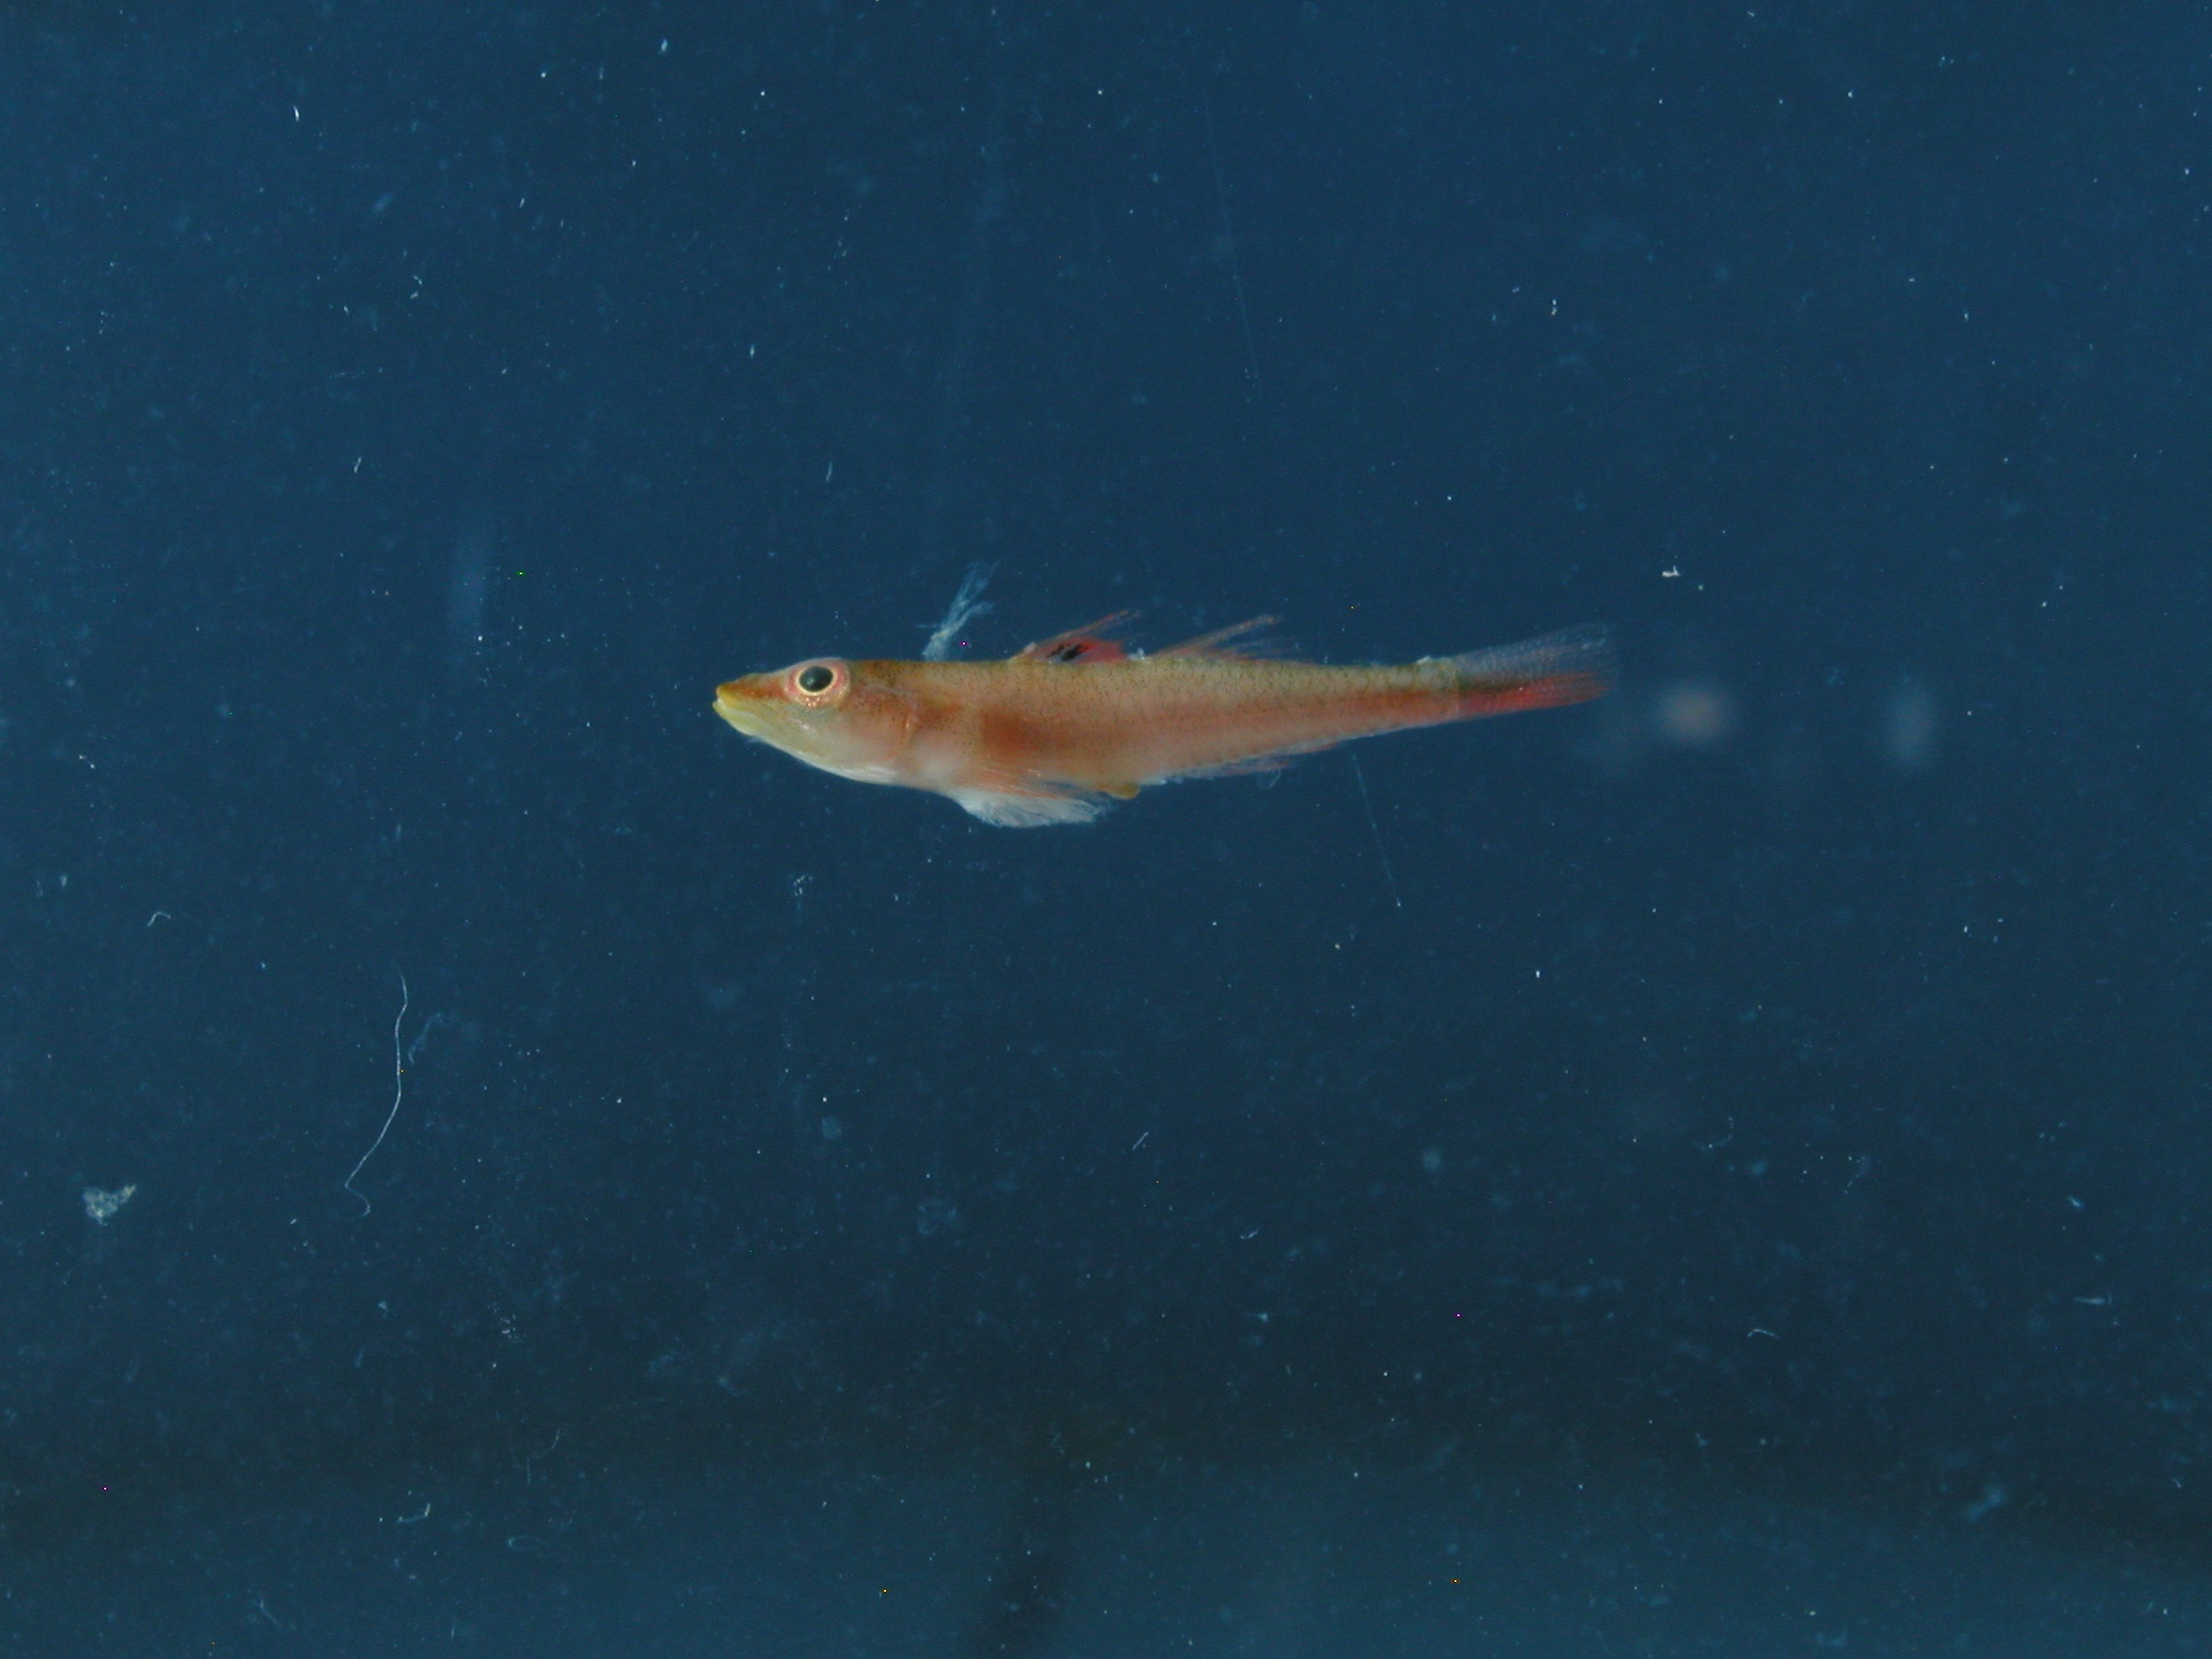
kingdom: Animalia
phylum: Chordata
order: Perciformes
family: Gobiidae
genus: Pleurosicya
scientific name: Pleurosicya mossambica
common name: Common ghost goby
